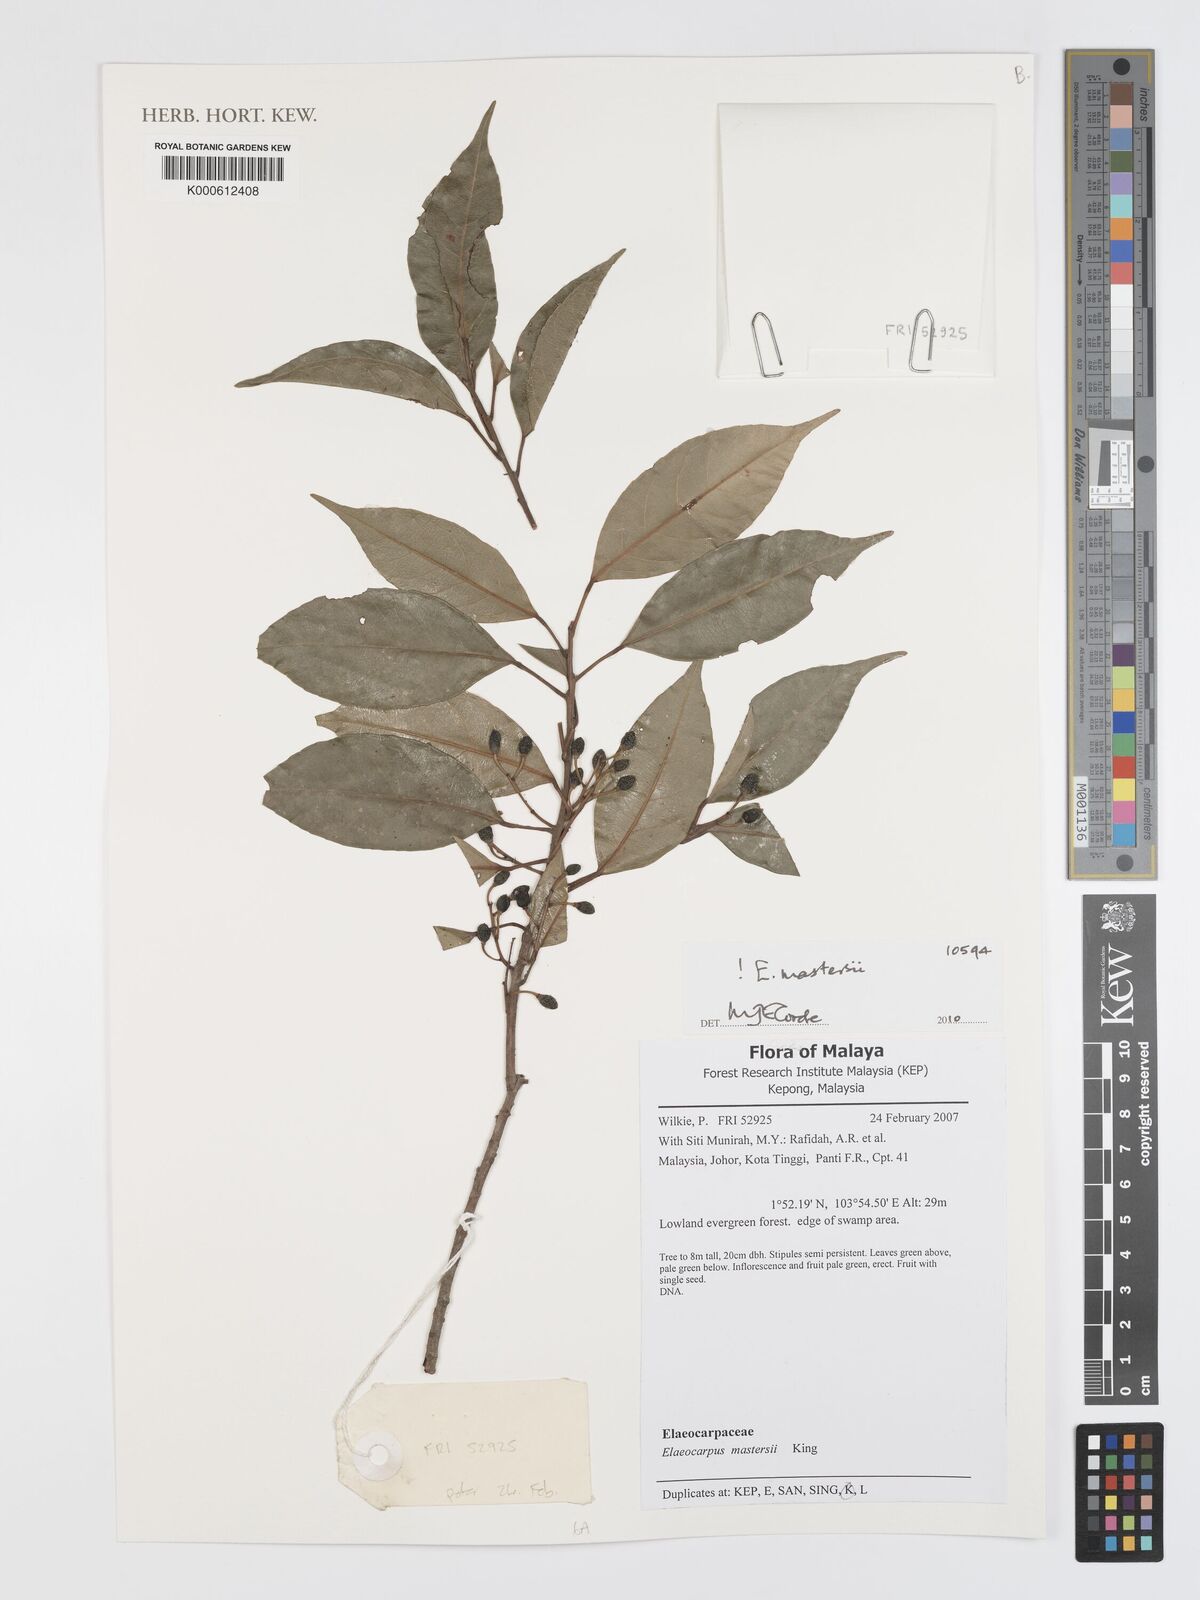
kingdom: Plantae
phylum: Tracheophyta
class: Magnoliopsida
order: Oxalidales
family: Elaeocarpaceae
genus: Elaeocarpus
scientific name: Elaeocarpus mastersii
